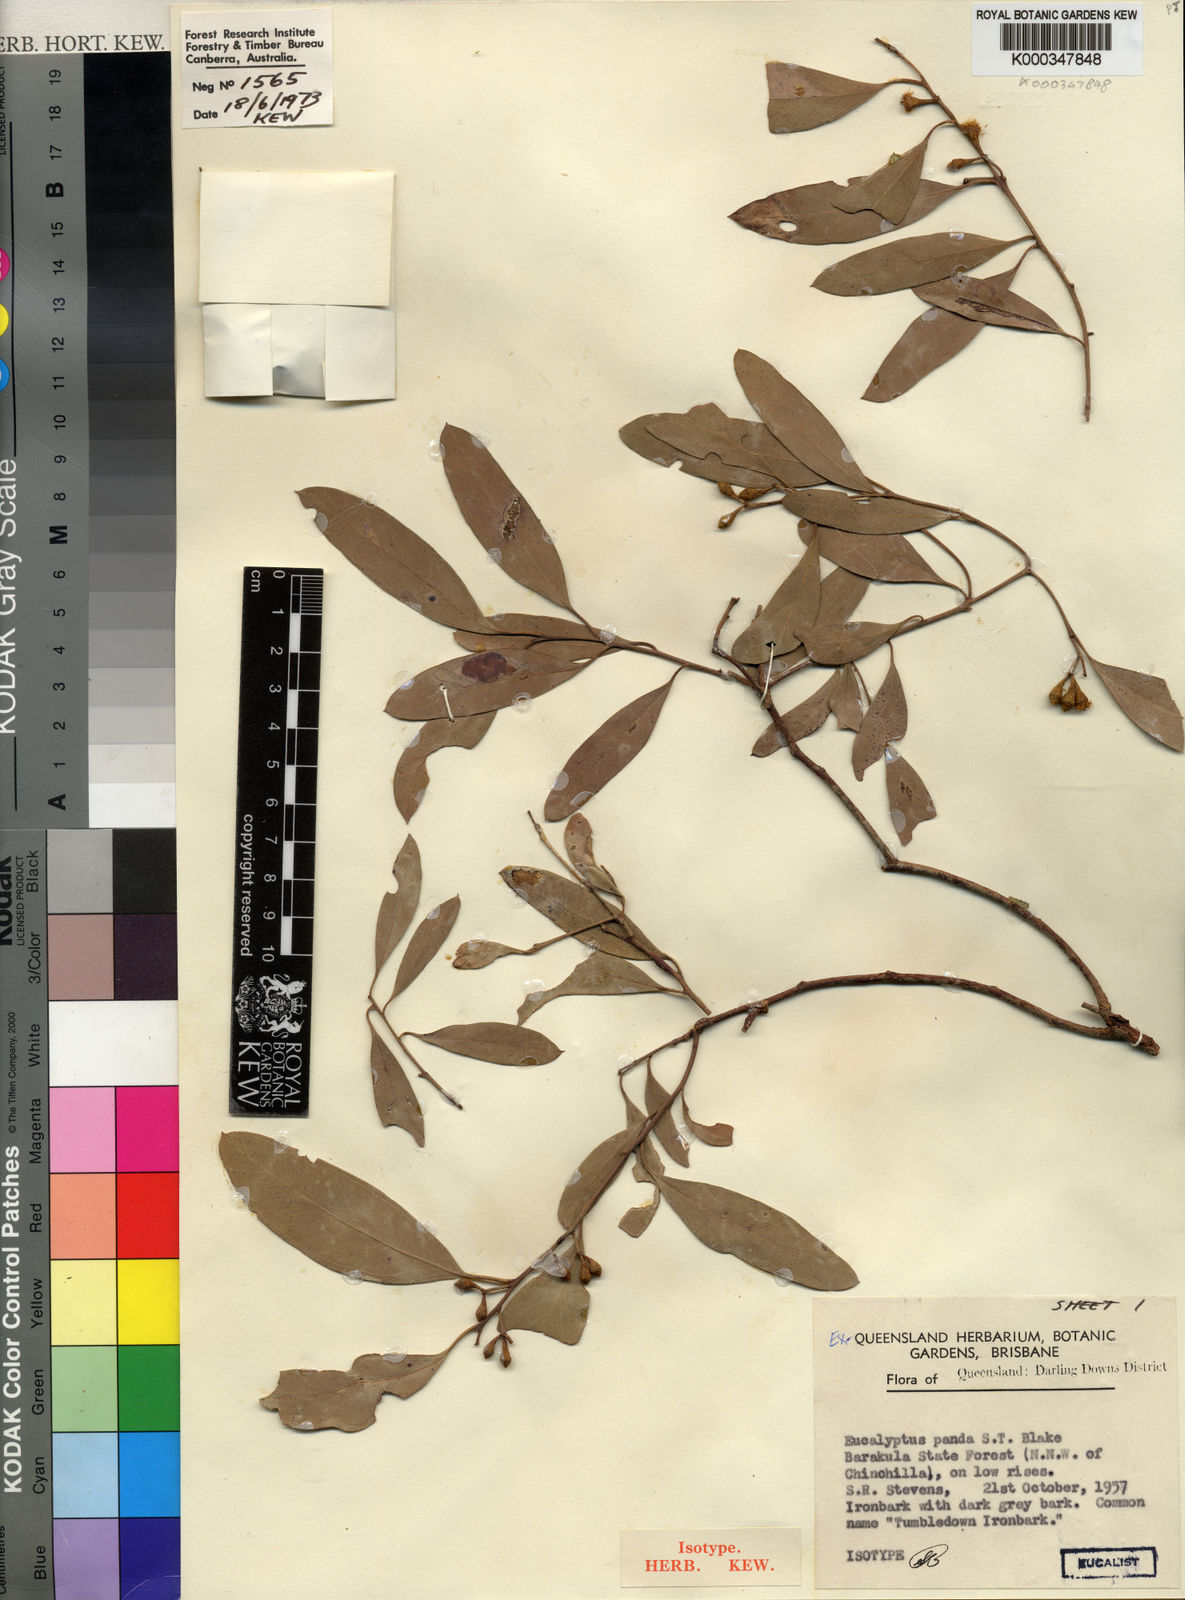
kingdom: Plantae
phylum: Tracheophyta
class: Magnoliopsida
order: Myrtales
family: Myrtaceae
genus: Eucalyptus
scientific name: Eucalyptus panda
